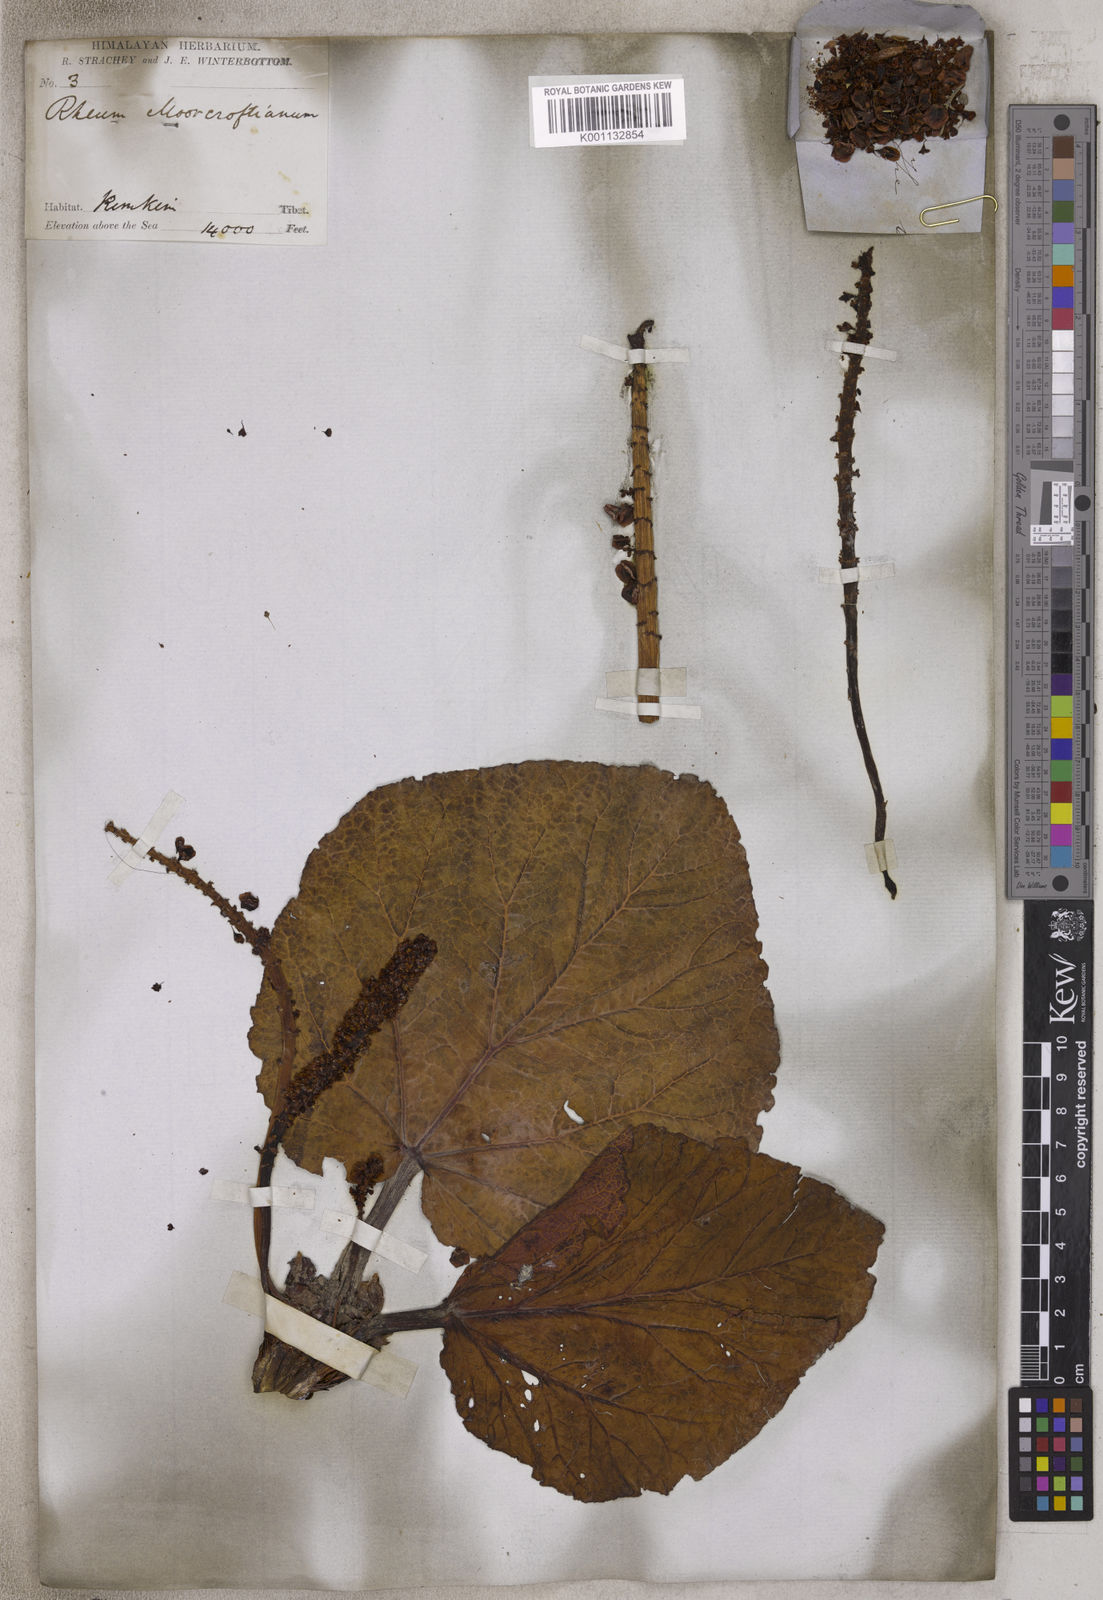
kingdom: Plantae
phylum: Tracheophyta
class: Magnoliopsida
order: Caryophyllales
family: Polygonaceae
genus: Rheum
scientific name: Rheum moorcroftianum
